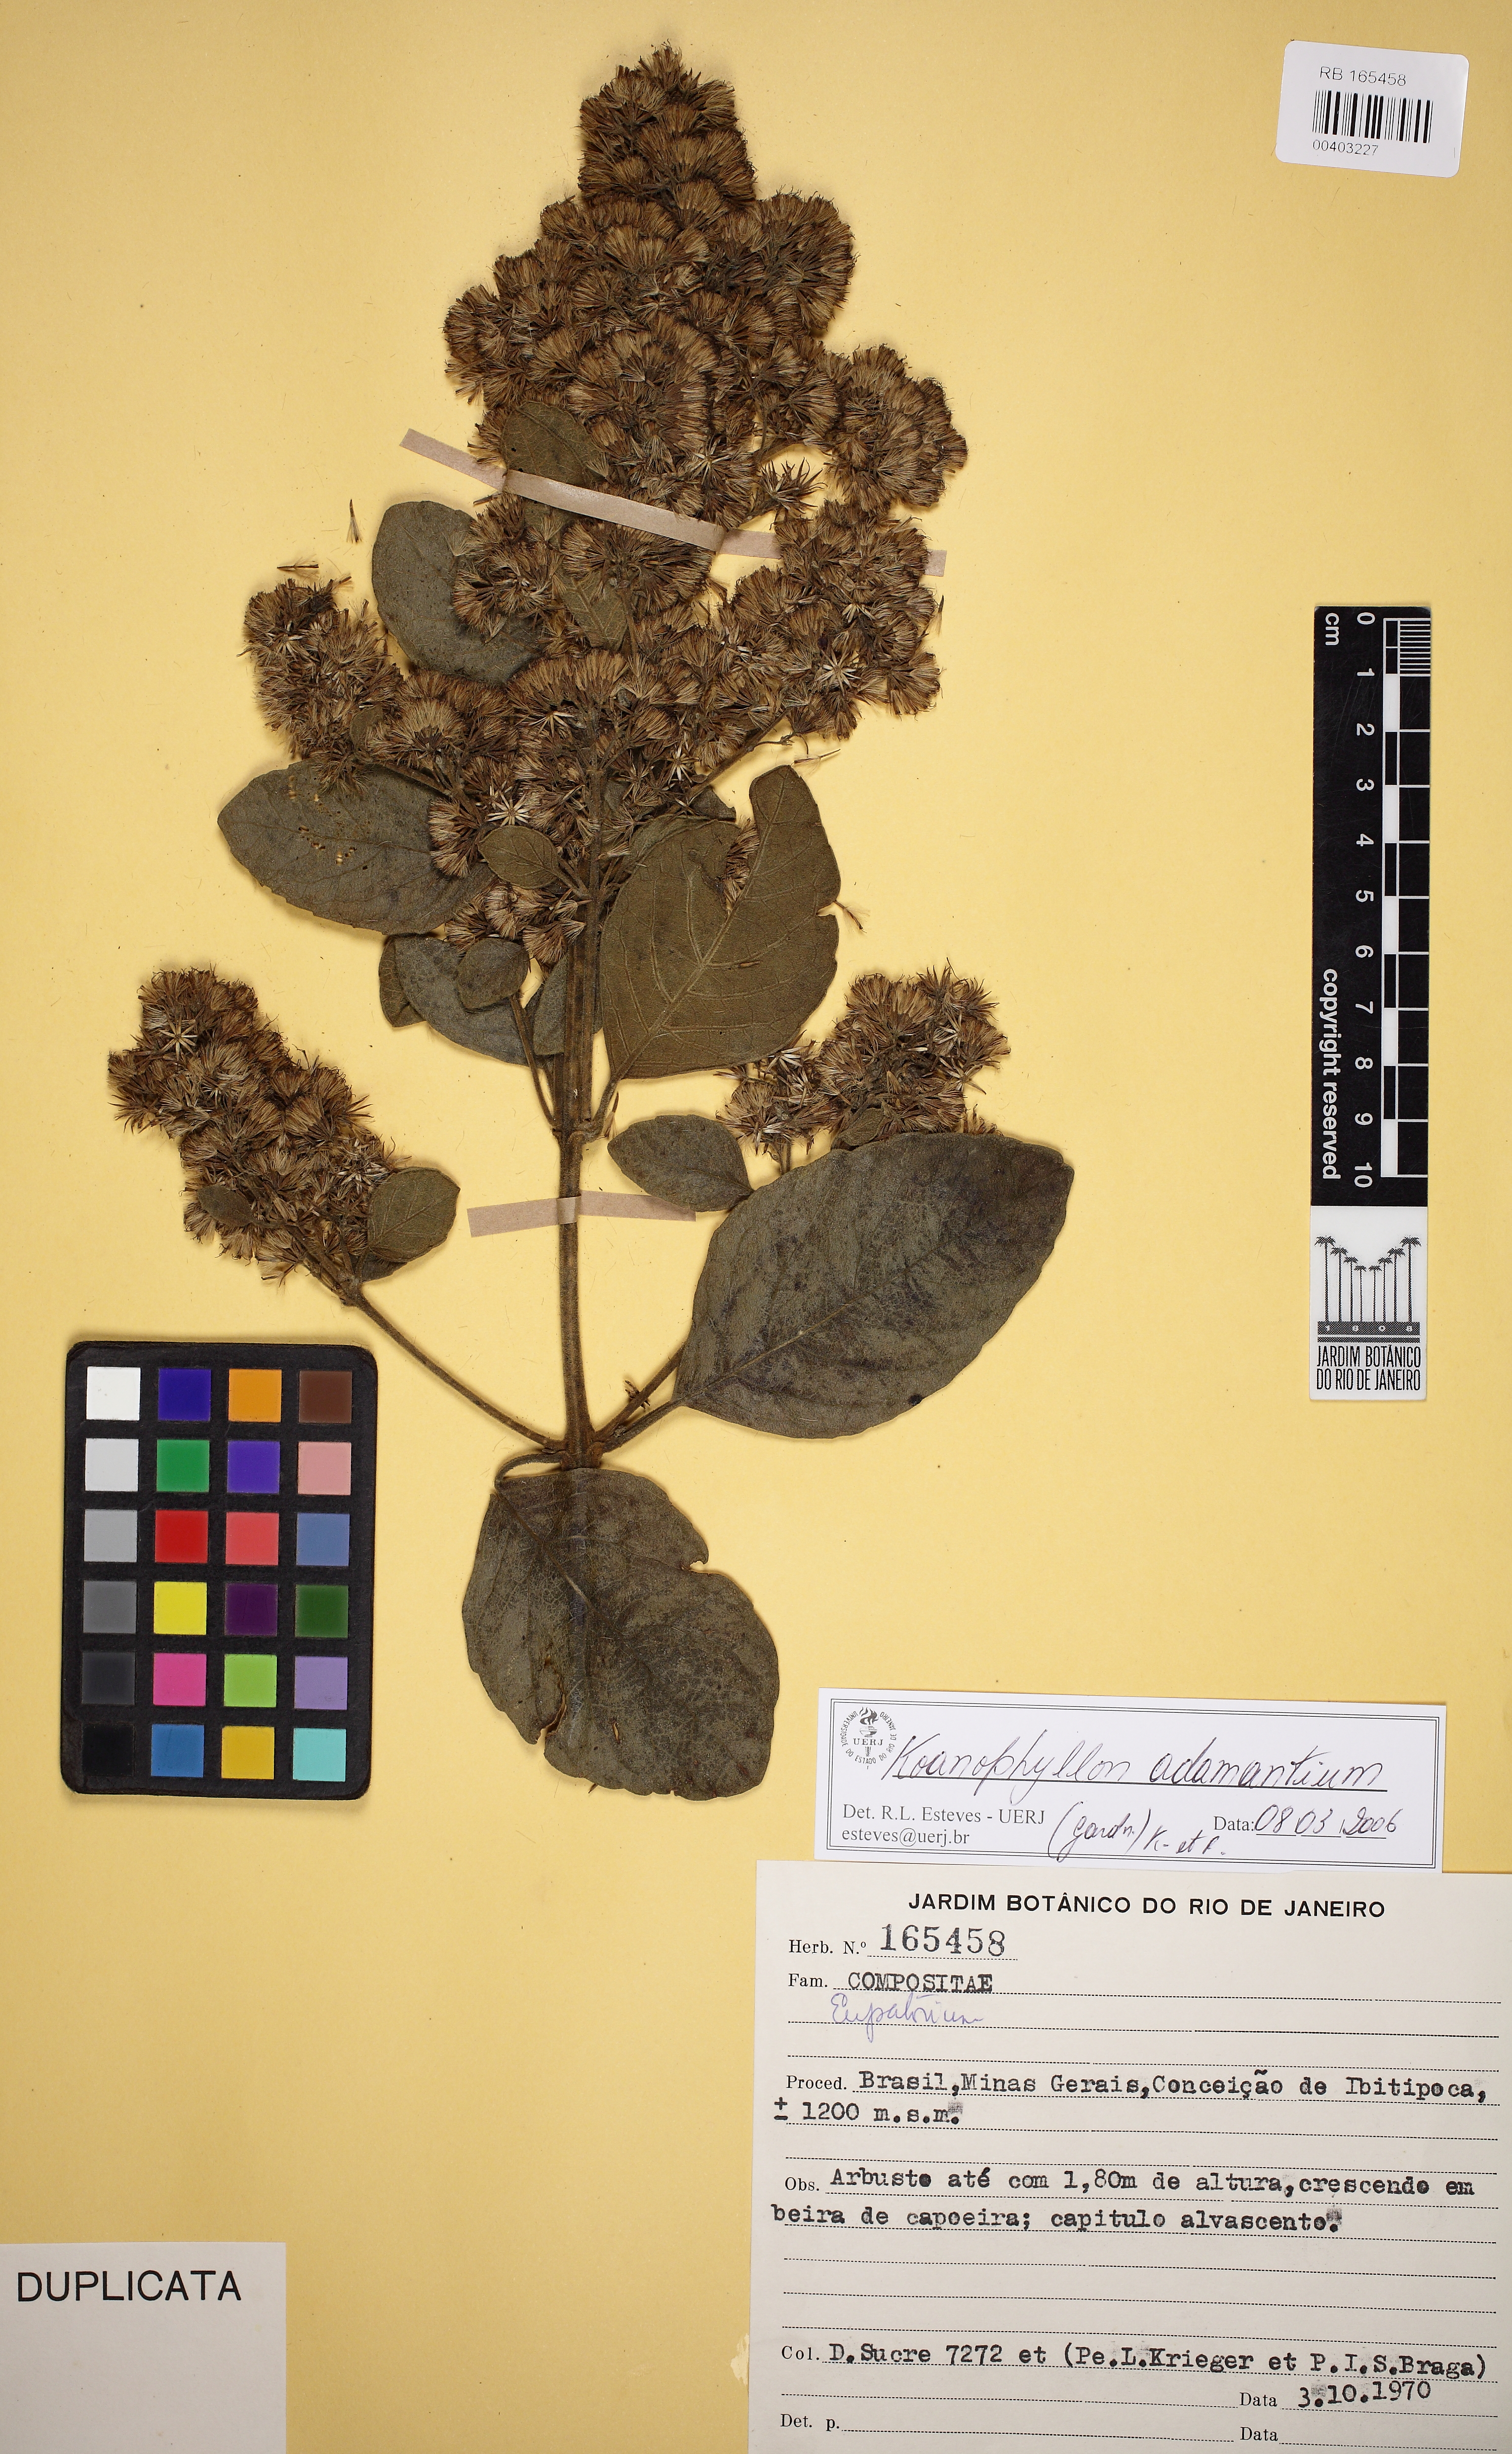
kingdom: Plantae
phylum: Tracheophyta
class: Magnoliopsida
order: Asterales
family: Asteraceae
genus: Koanophyllon
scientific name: Koanophyllon adamantium
